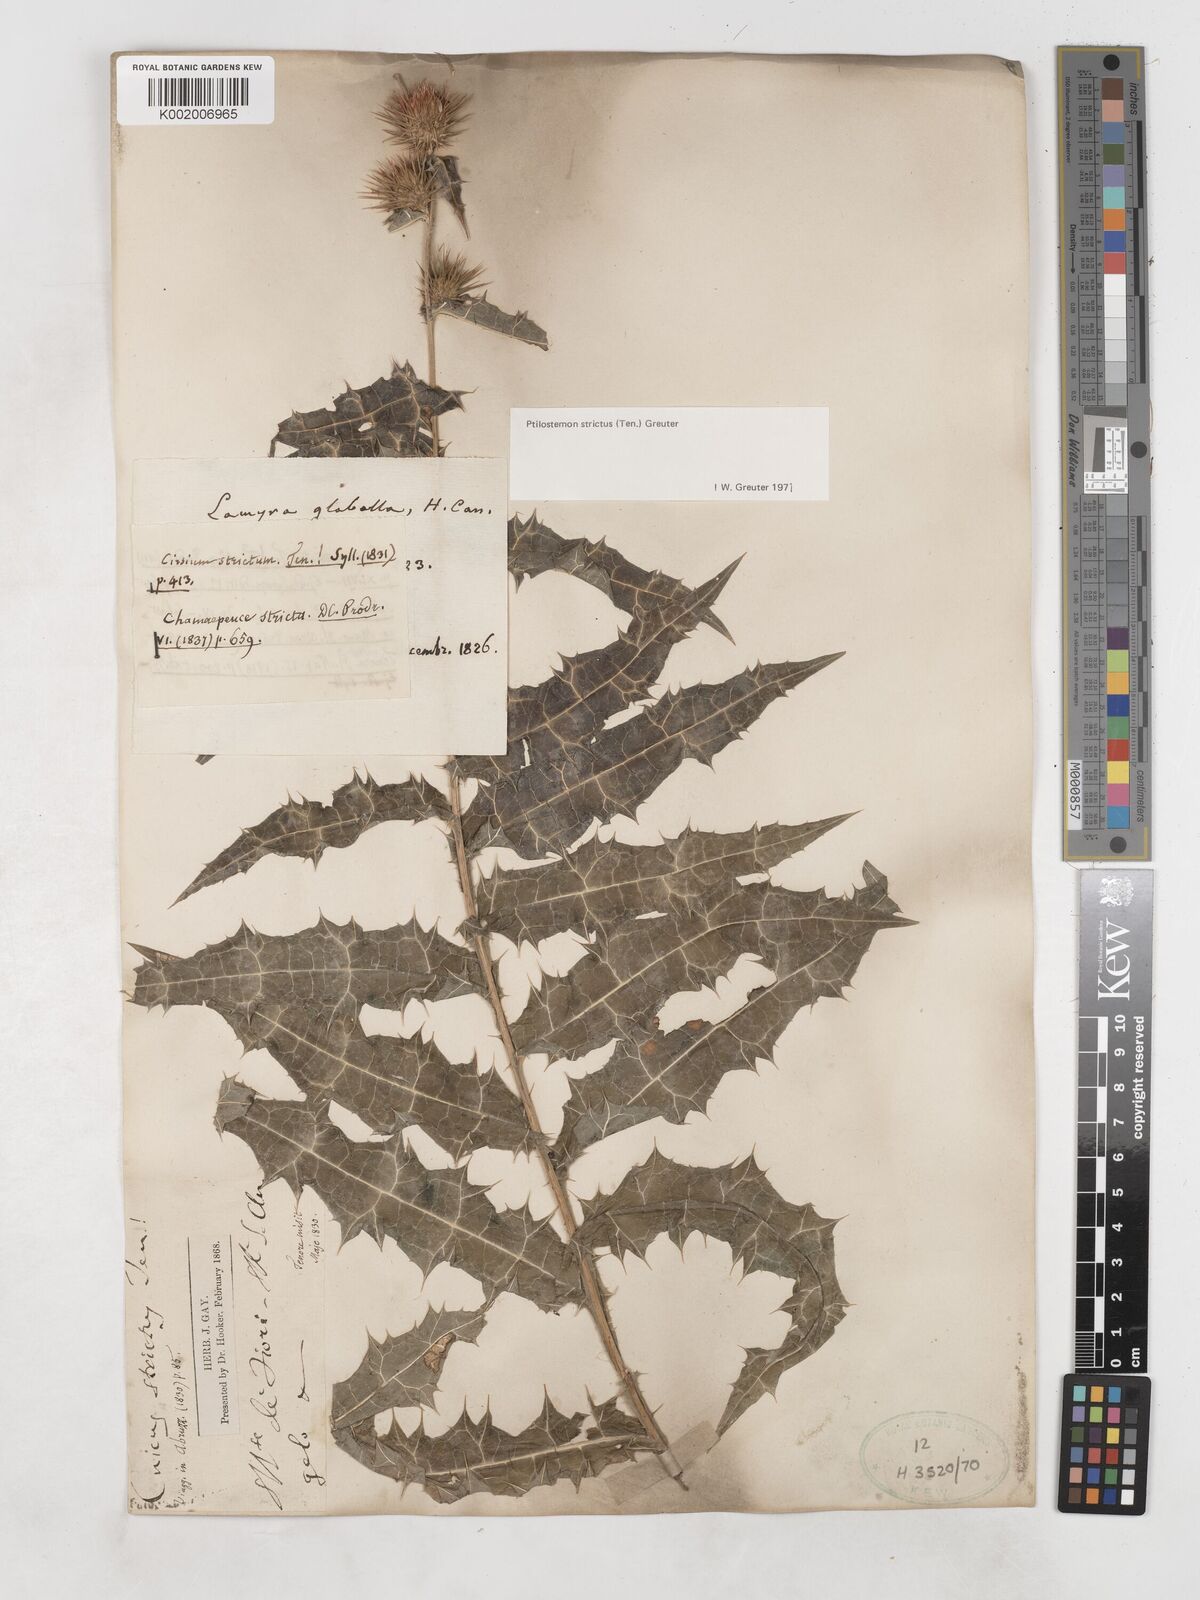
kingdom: Plantae
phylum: Tracheophyta
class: Magnoliopsida
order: Asterales
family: Asteraceae
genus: Ptilostemon
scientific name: Ptilostemon strictus
